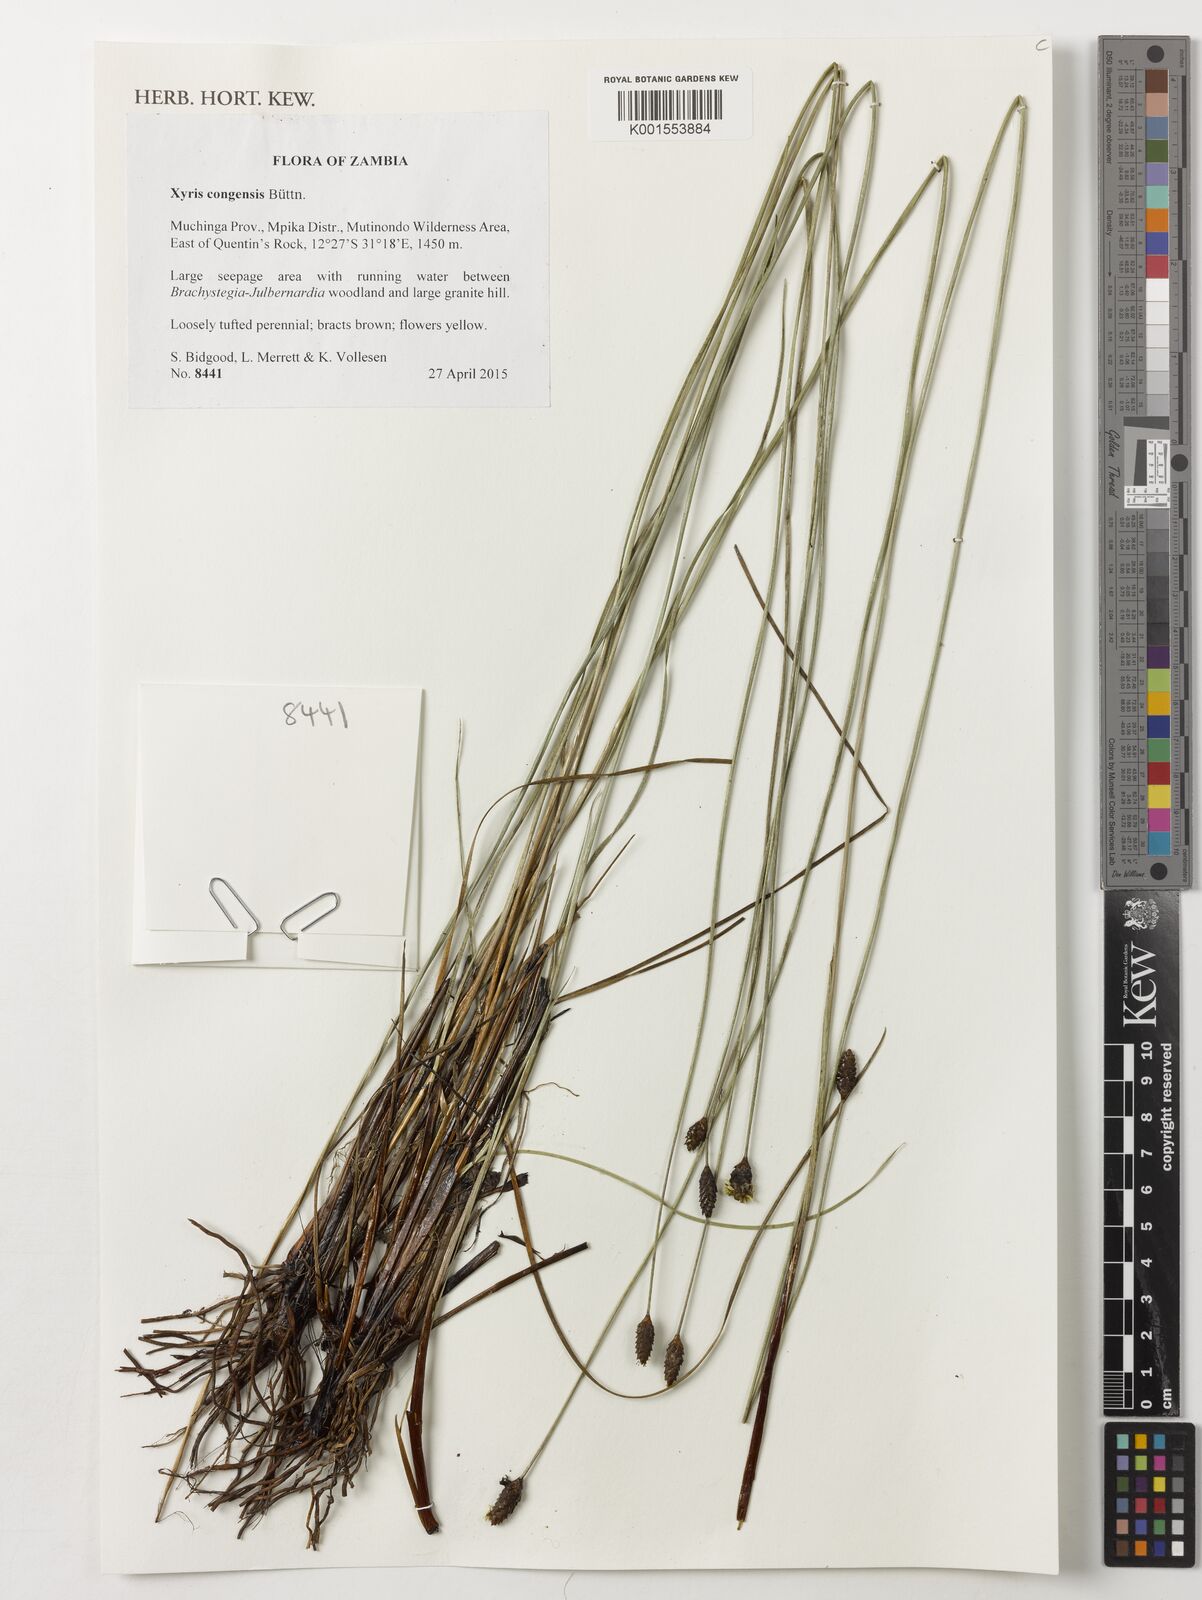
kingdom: Plantae
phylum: Tracheophyta
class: Liliopsida
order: Poales
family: Xyridaceae
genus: Xyris
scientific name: Xyris congensis
